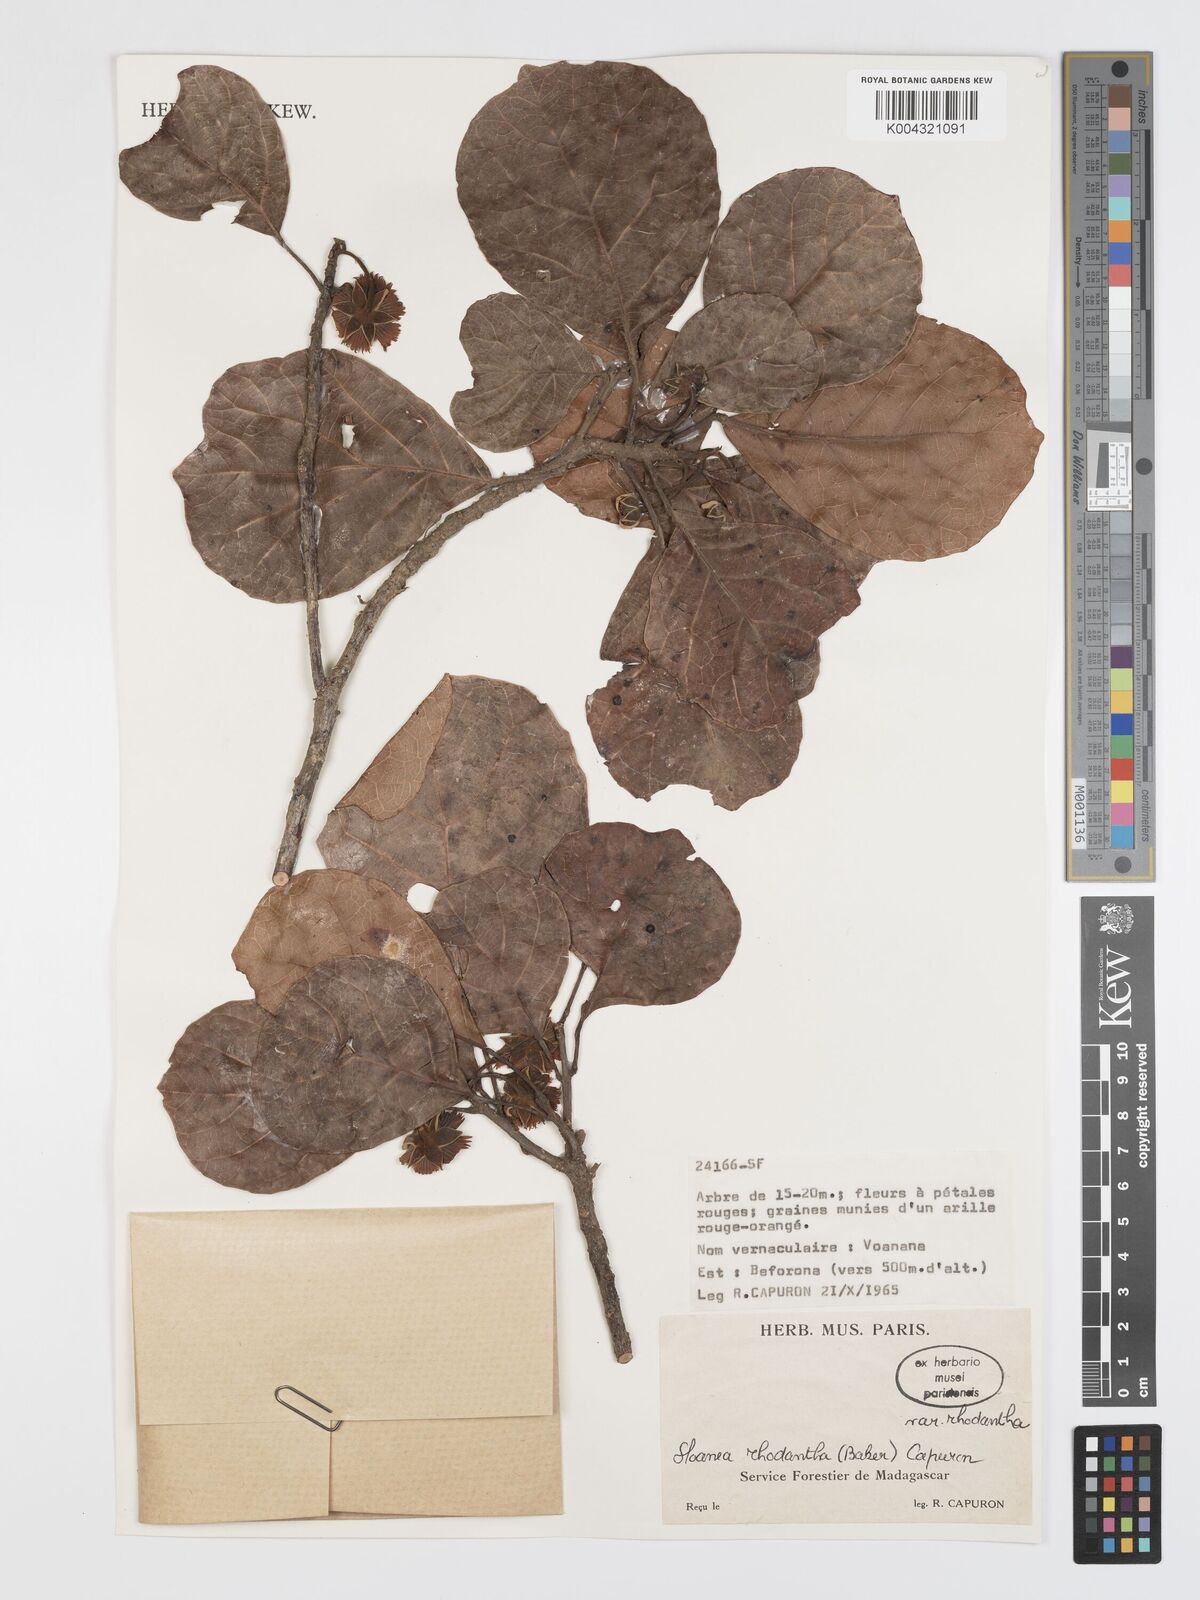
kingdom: Plantae
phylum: Tracheophyta
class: Magnoliopsida
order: Oxalidales
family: Elaeocarpaceae
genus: Sloanea
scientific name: Sloanea rhodantha
